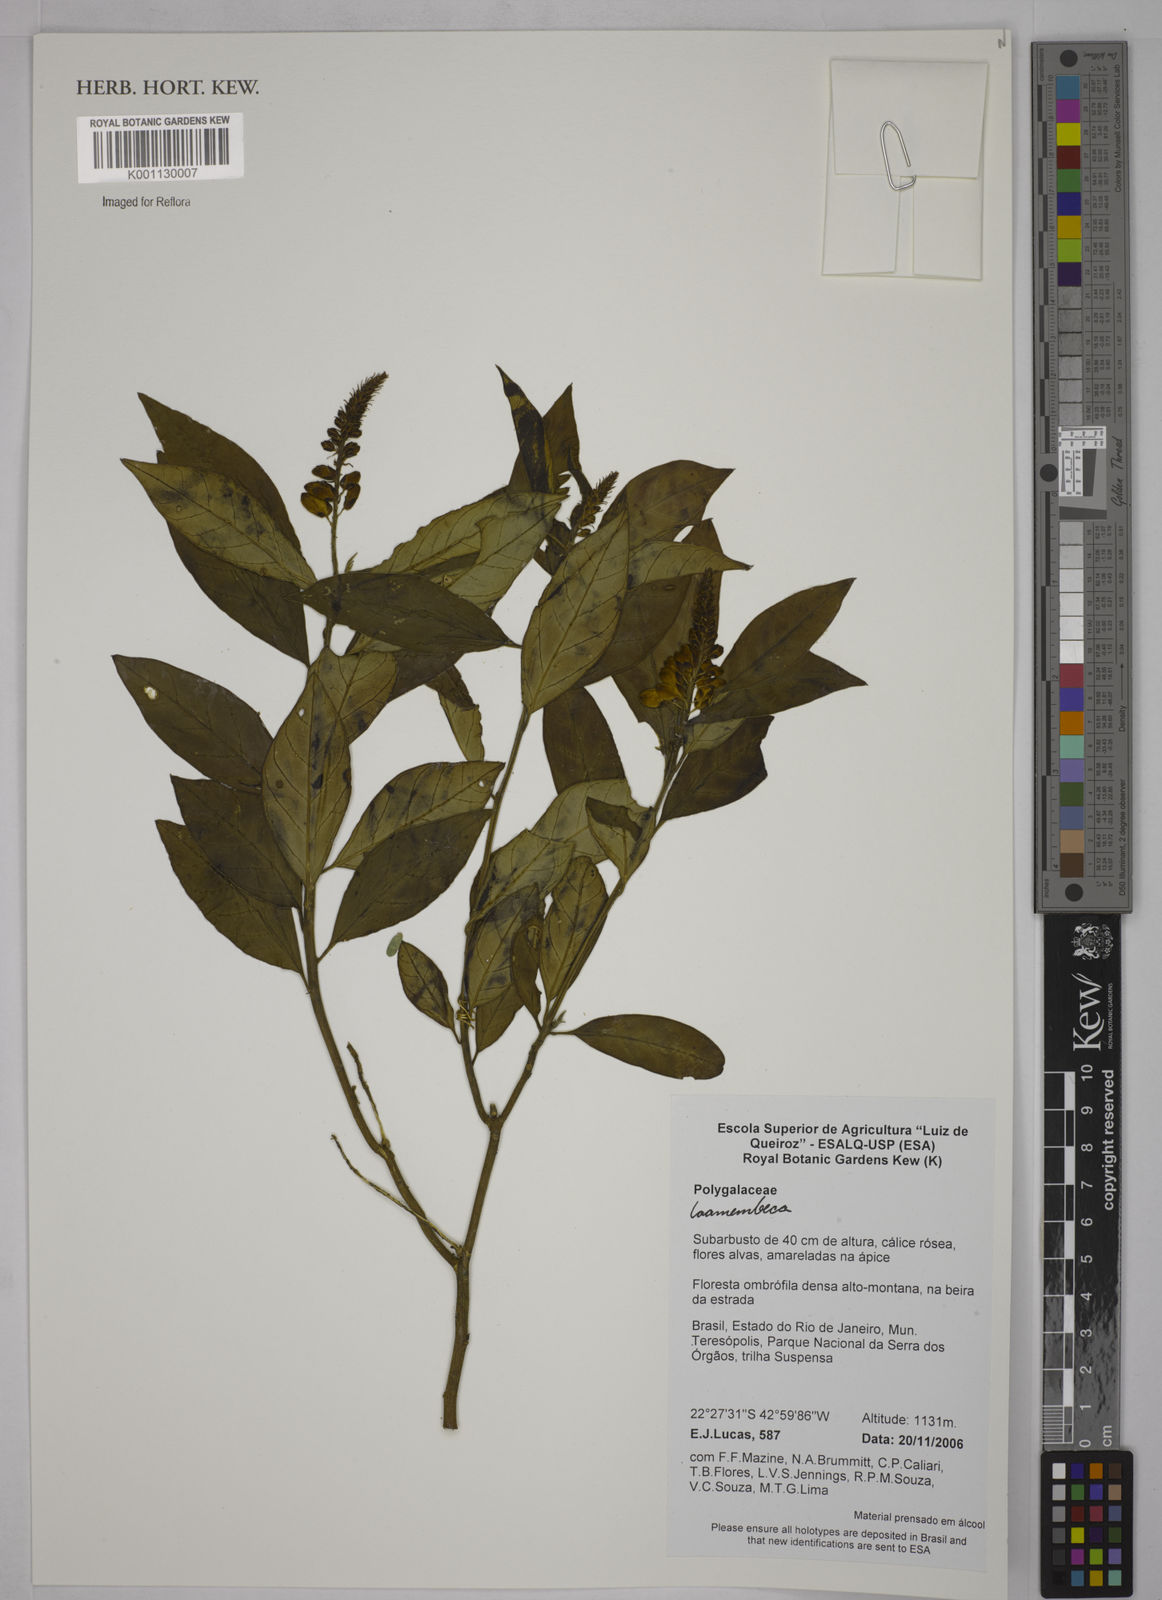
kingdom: Plantae
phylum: Tracheophyta
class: Magnoliopsida
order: Fabales
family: Polygalaceae
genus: Polygala
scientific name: Polygala
